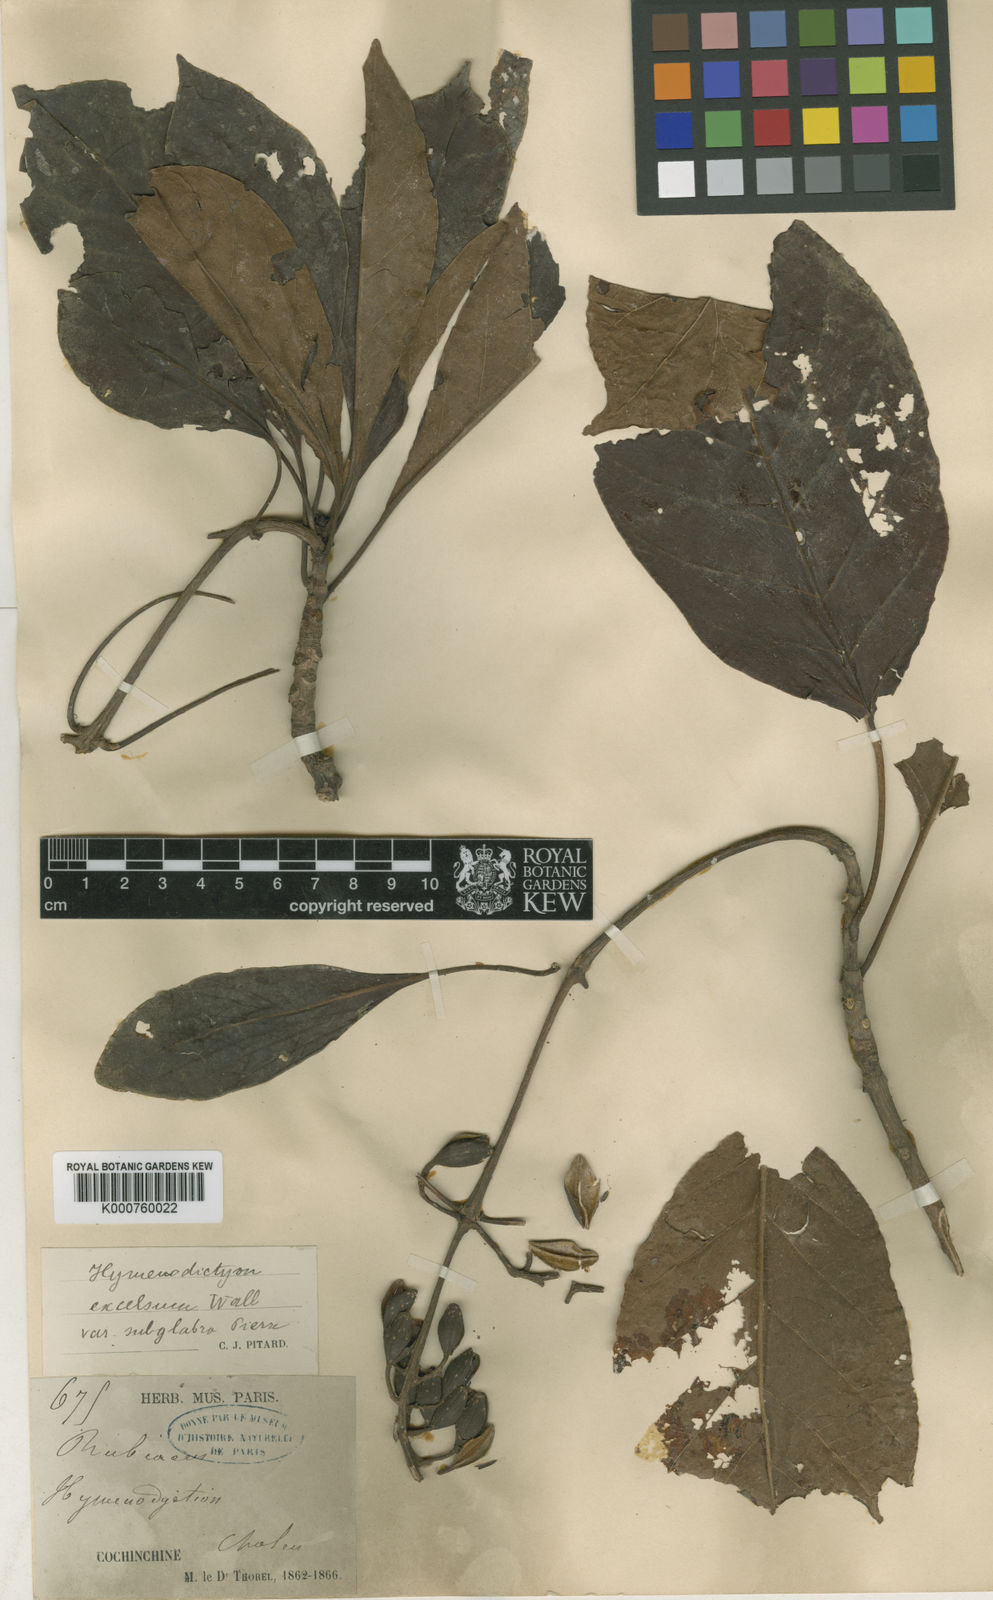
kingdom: Plantae
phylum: Tracheophyta
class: Magnoliopsida
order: Gentianales
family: Rubiaceae
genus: Hymenodictyon
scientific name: Hymenodictyon orixense
